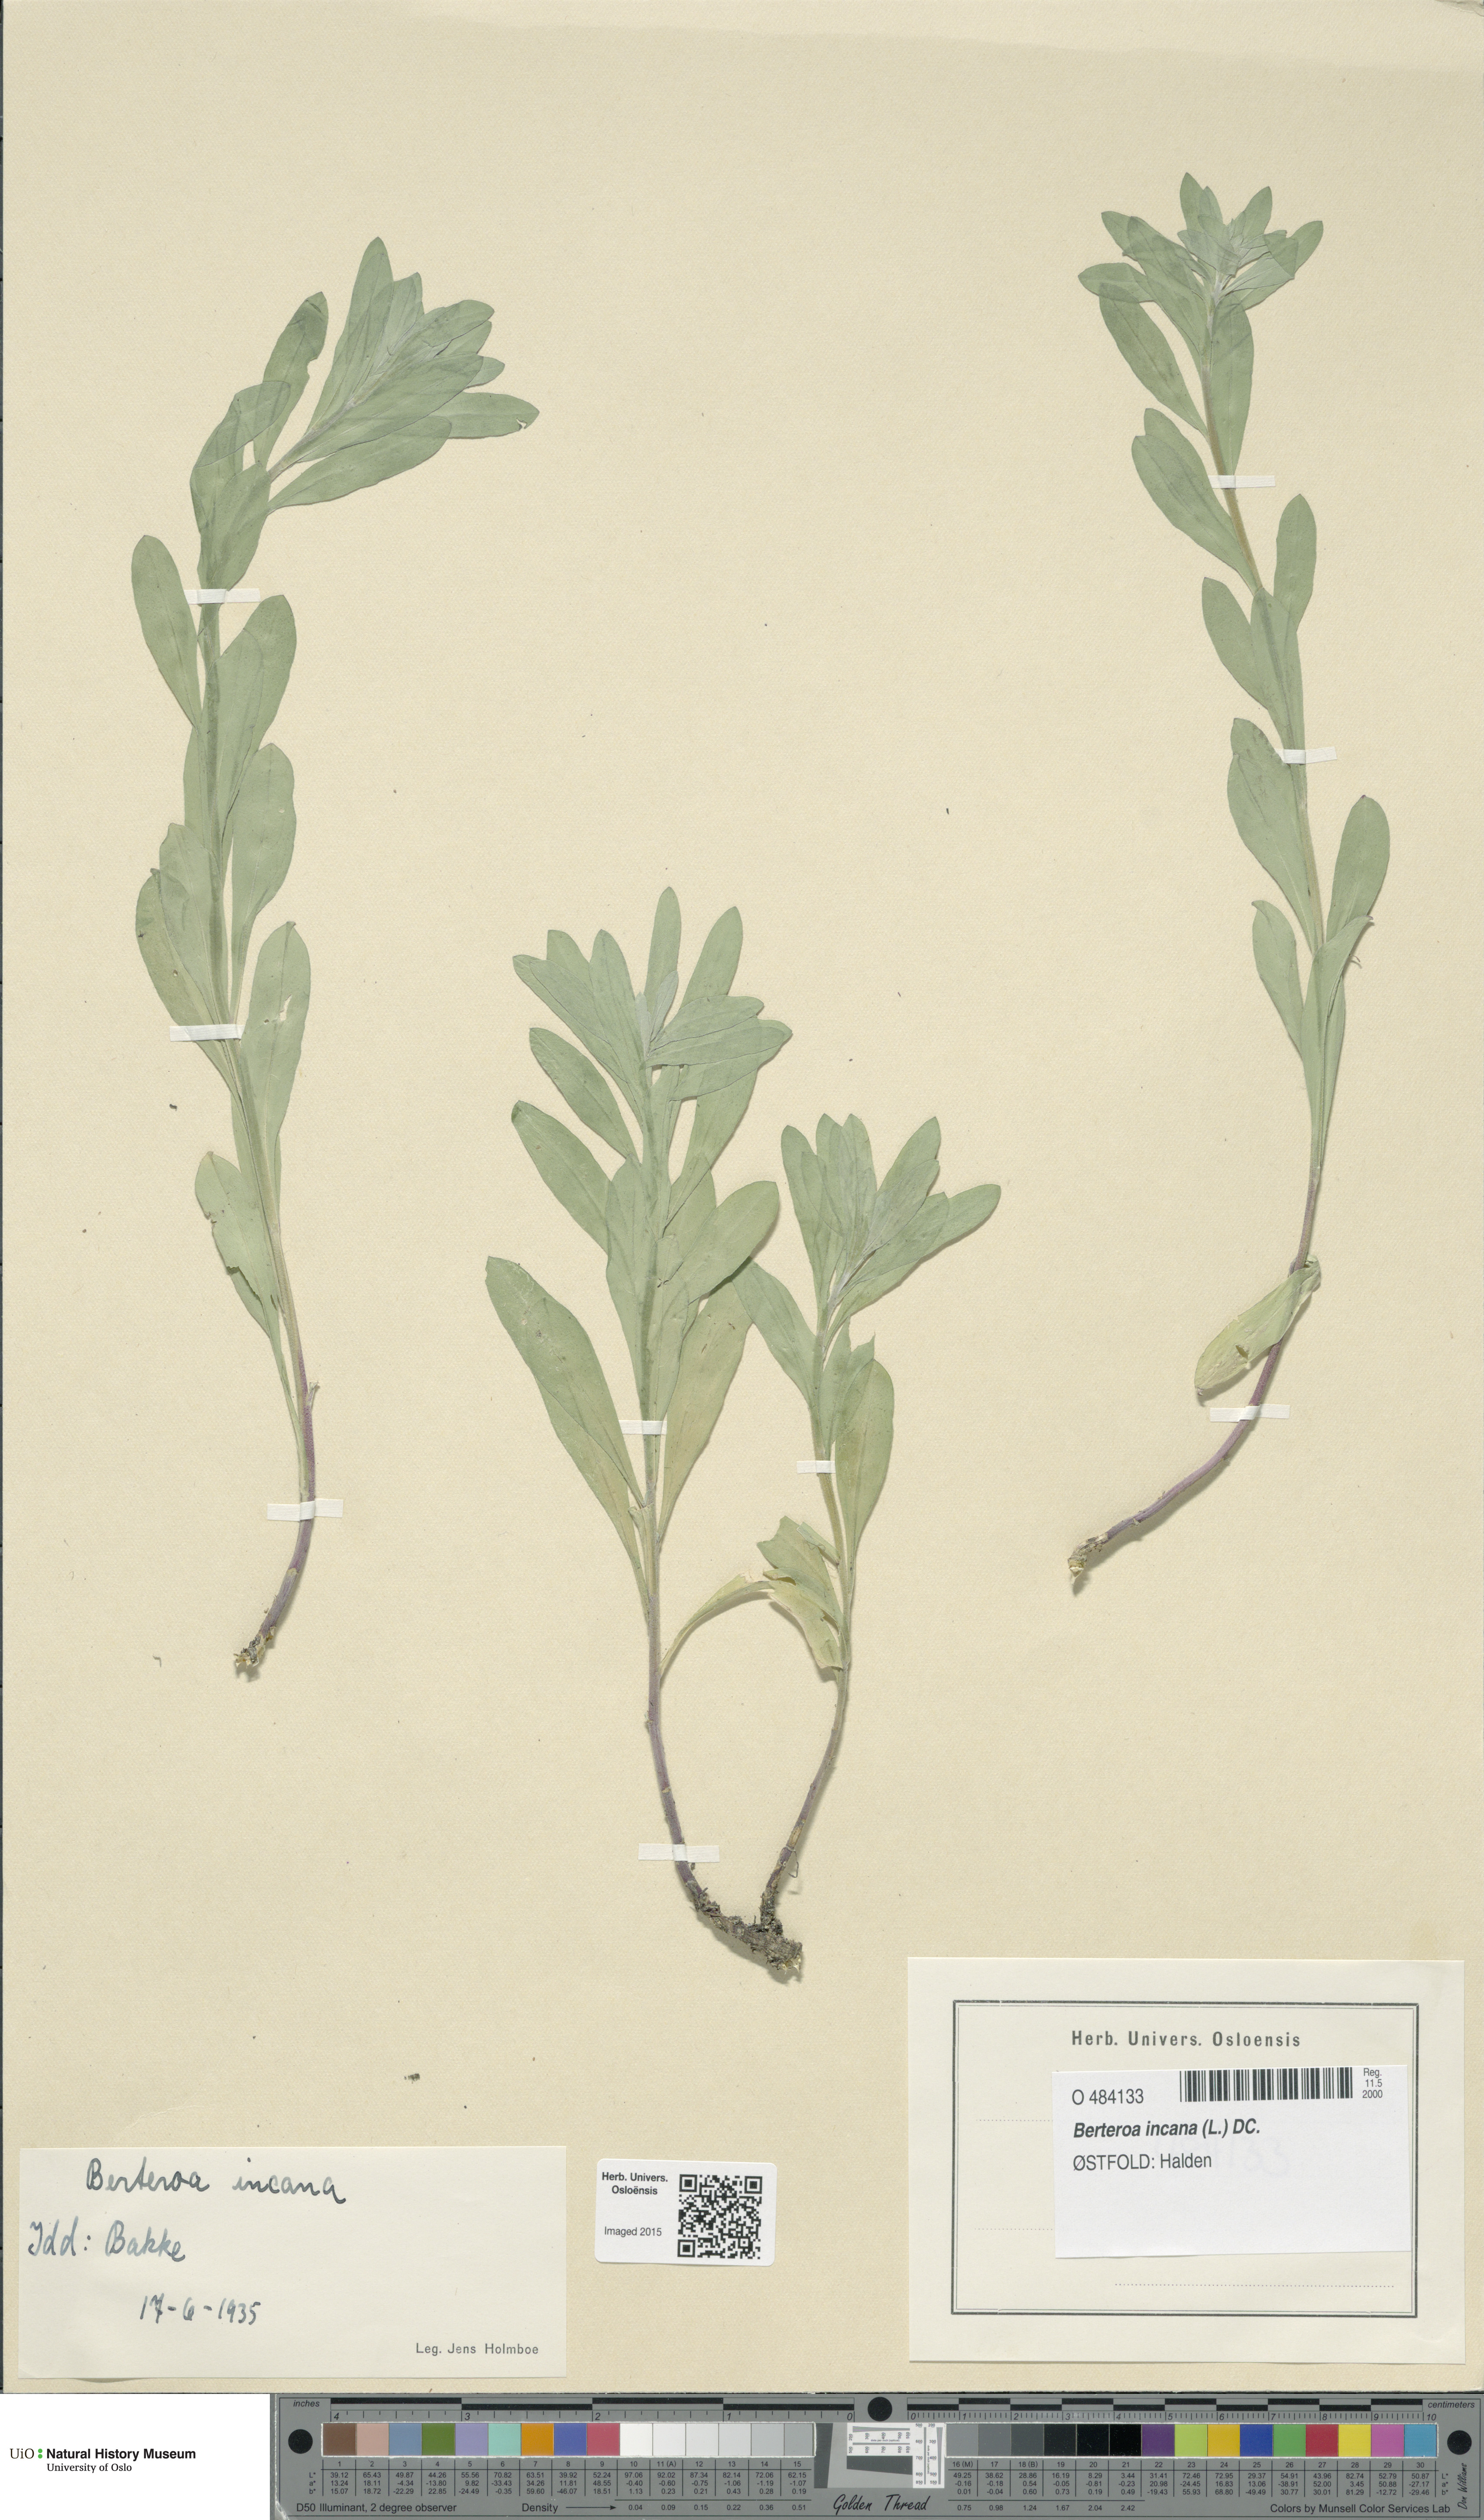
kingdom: Plantae
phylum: Tracheophyta
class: Magnoliopsida
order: Brassicales
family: Brassicaceae
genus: Berteroa
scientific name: Berteroa incana
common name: Hoary alison
